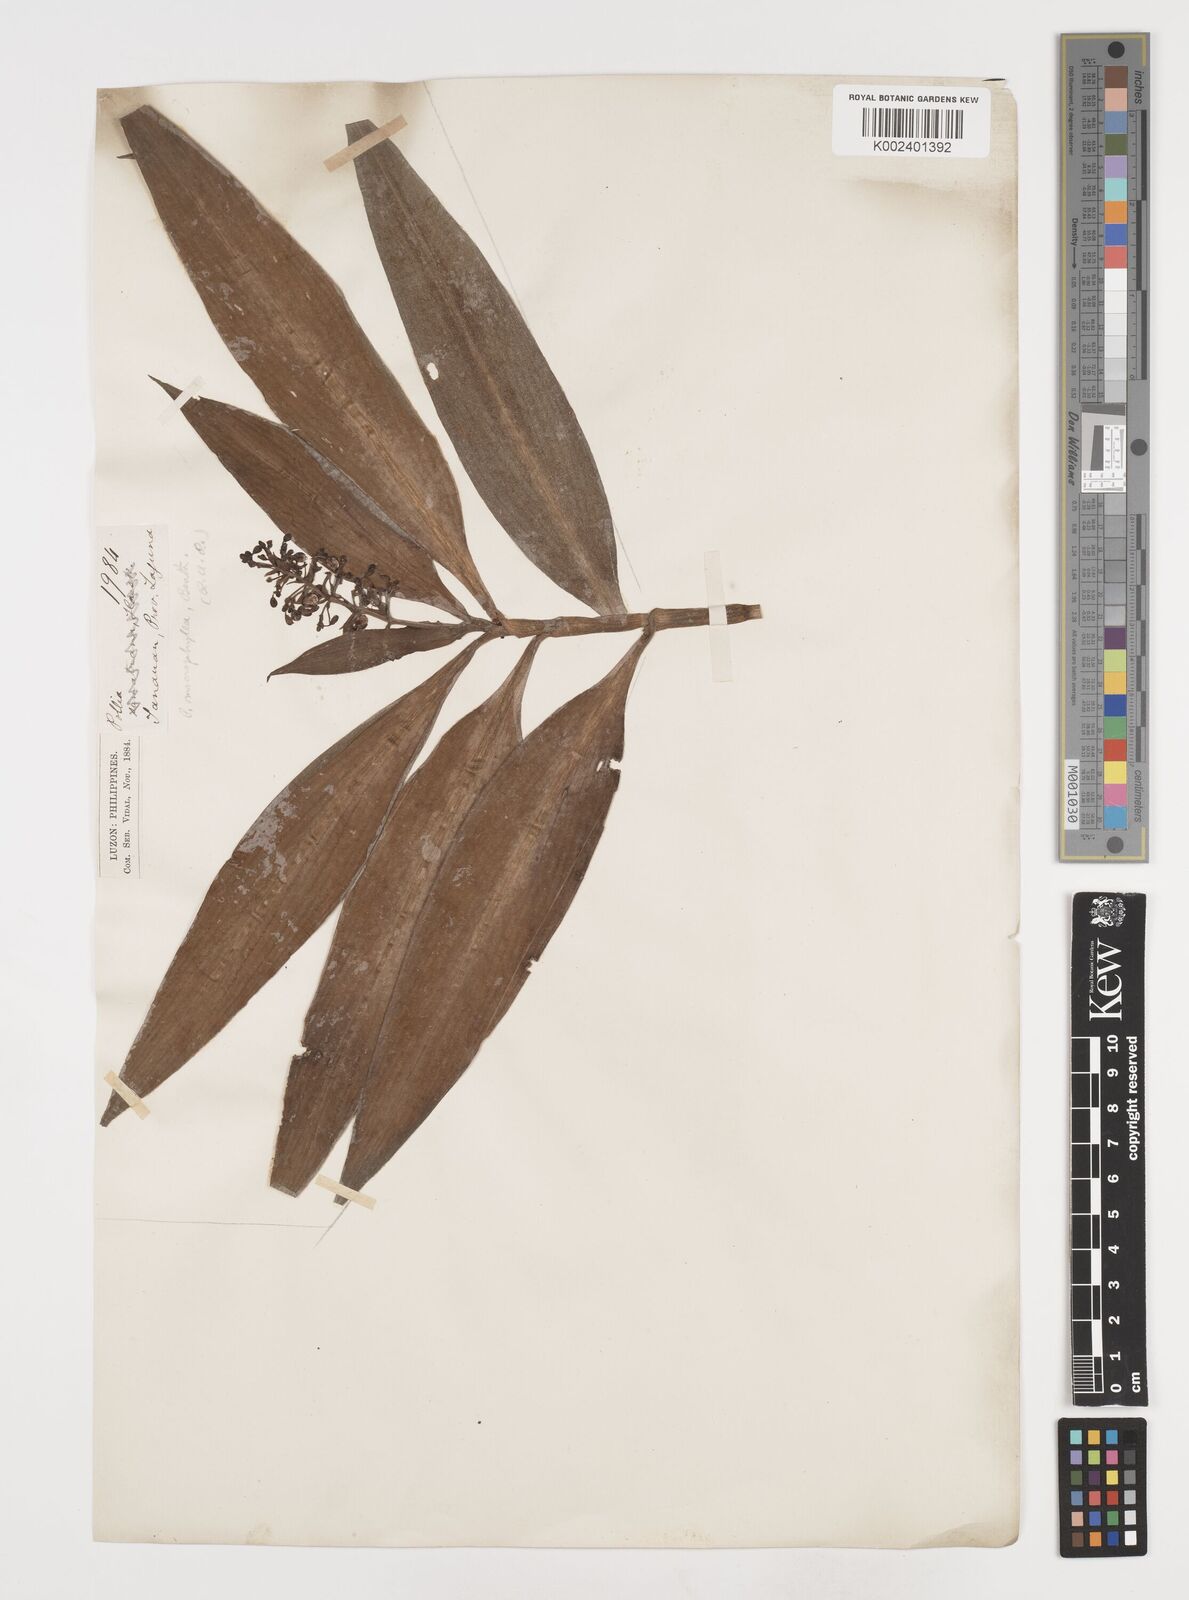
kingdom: Plantae
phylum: Tracheophyta
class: Liliopsida
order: Commelinales
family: Commelinaceae
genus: Pollia
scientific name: Pollia macrophylla
